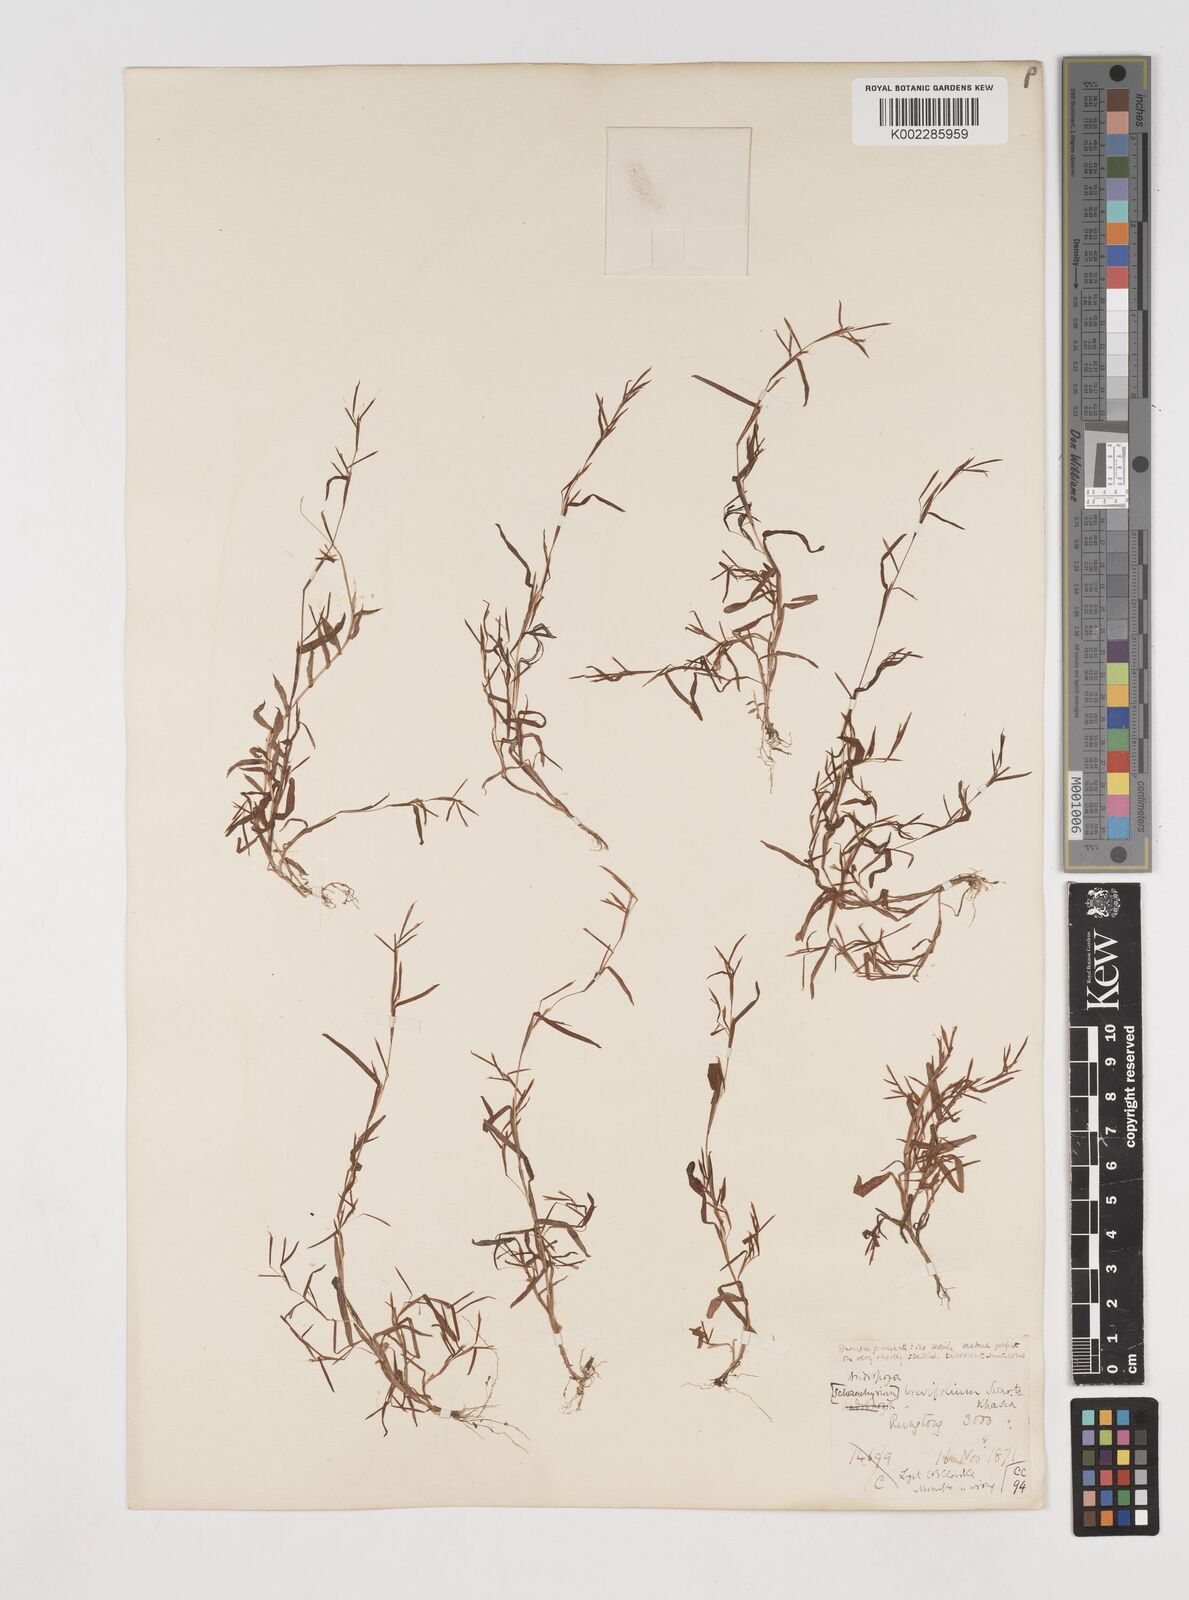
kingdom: Plantae
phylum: Tracheophyta
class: Liliopsida
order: Poales
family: Poaceae
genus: Schizachyrium
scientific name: Schizachyrium brevifolium
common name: Serillo dulce
